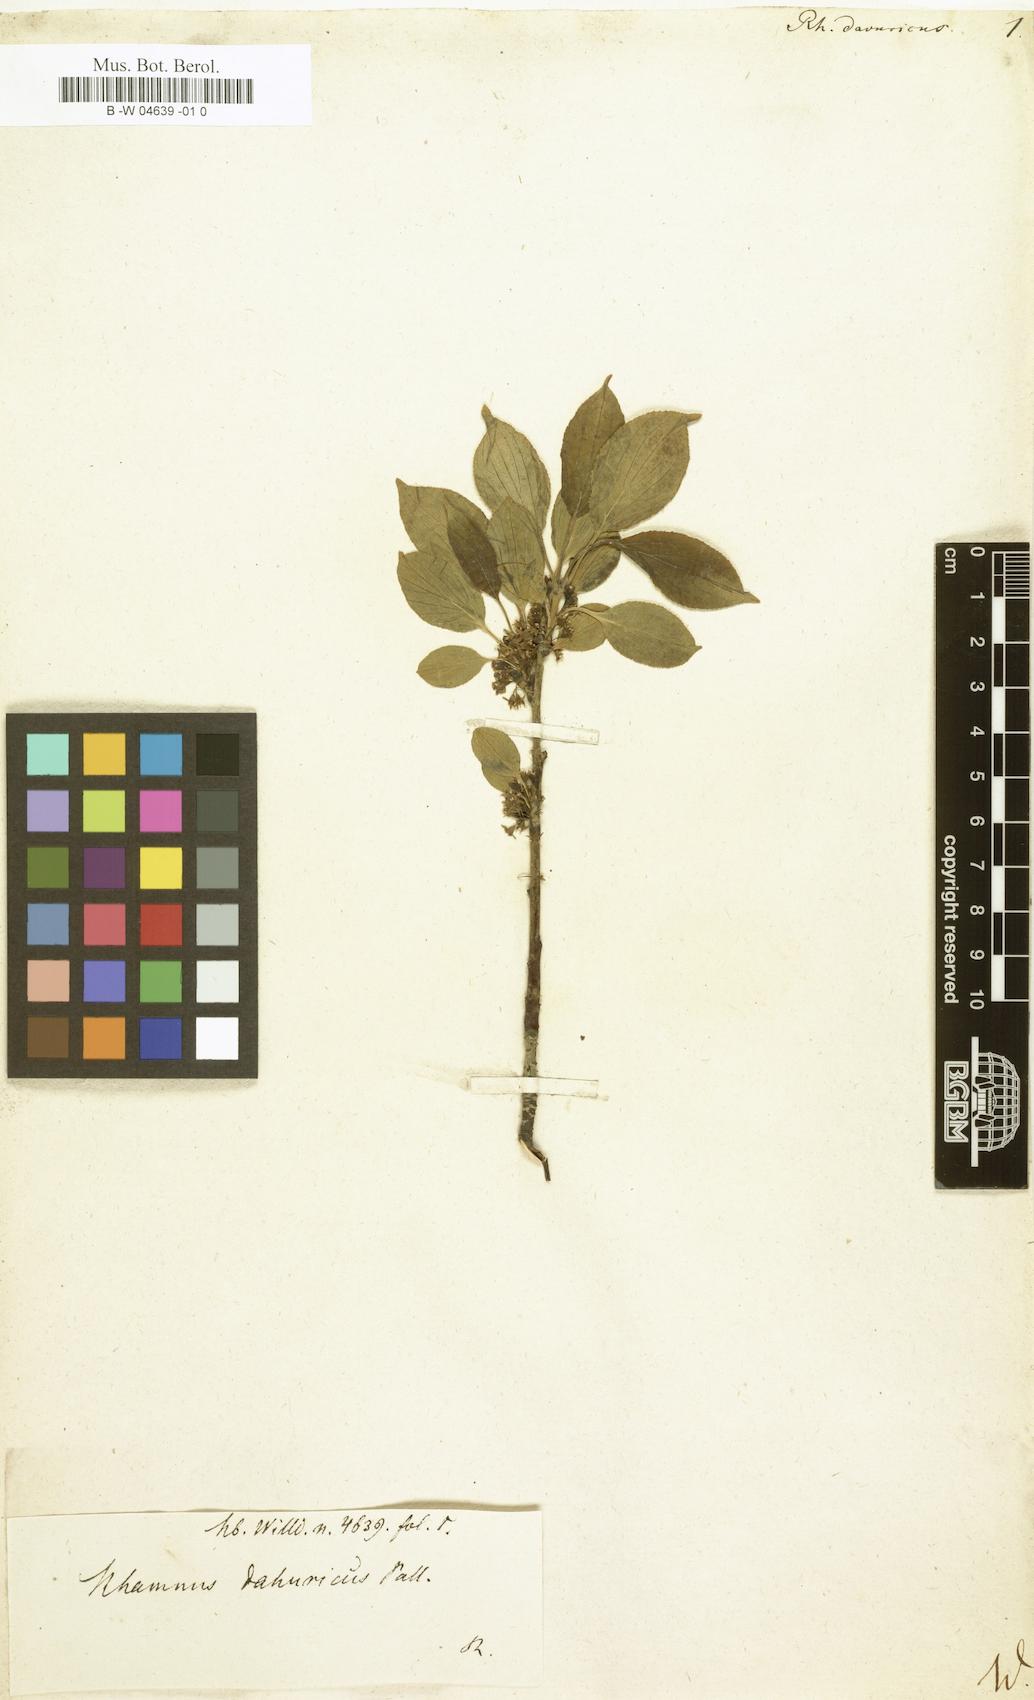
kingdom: Plantae
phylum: Tracheophyta
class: Magnoliopsida
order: Rosales
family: Rhamnaceae
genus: Rhamnus
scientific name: Rhamnus davuricus
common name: Dahurian buckthorn
